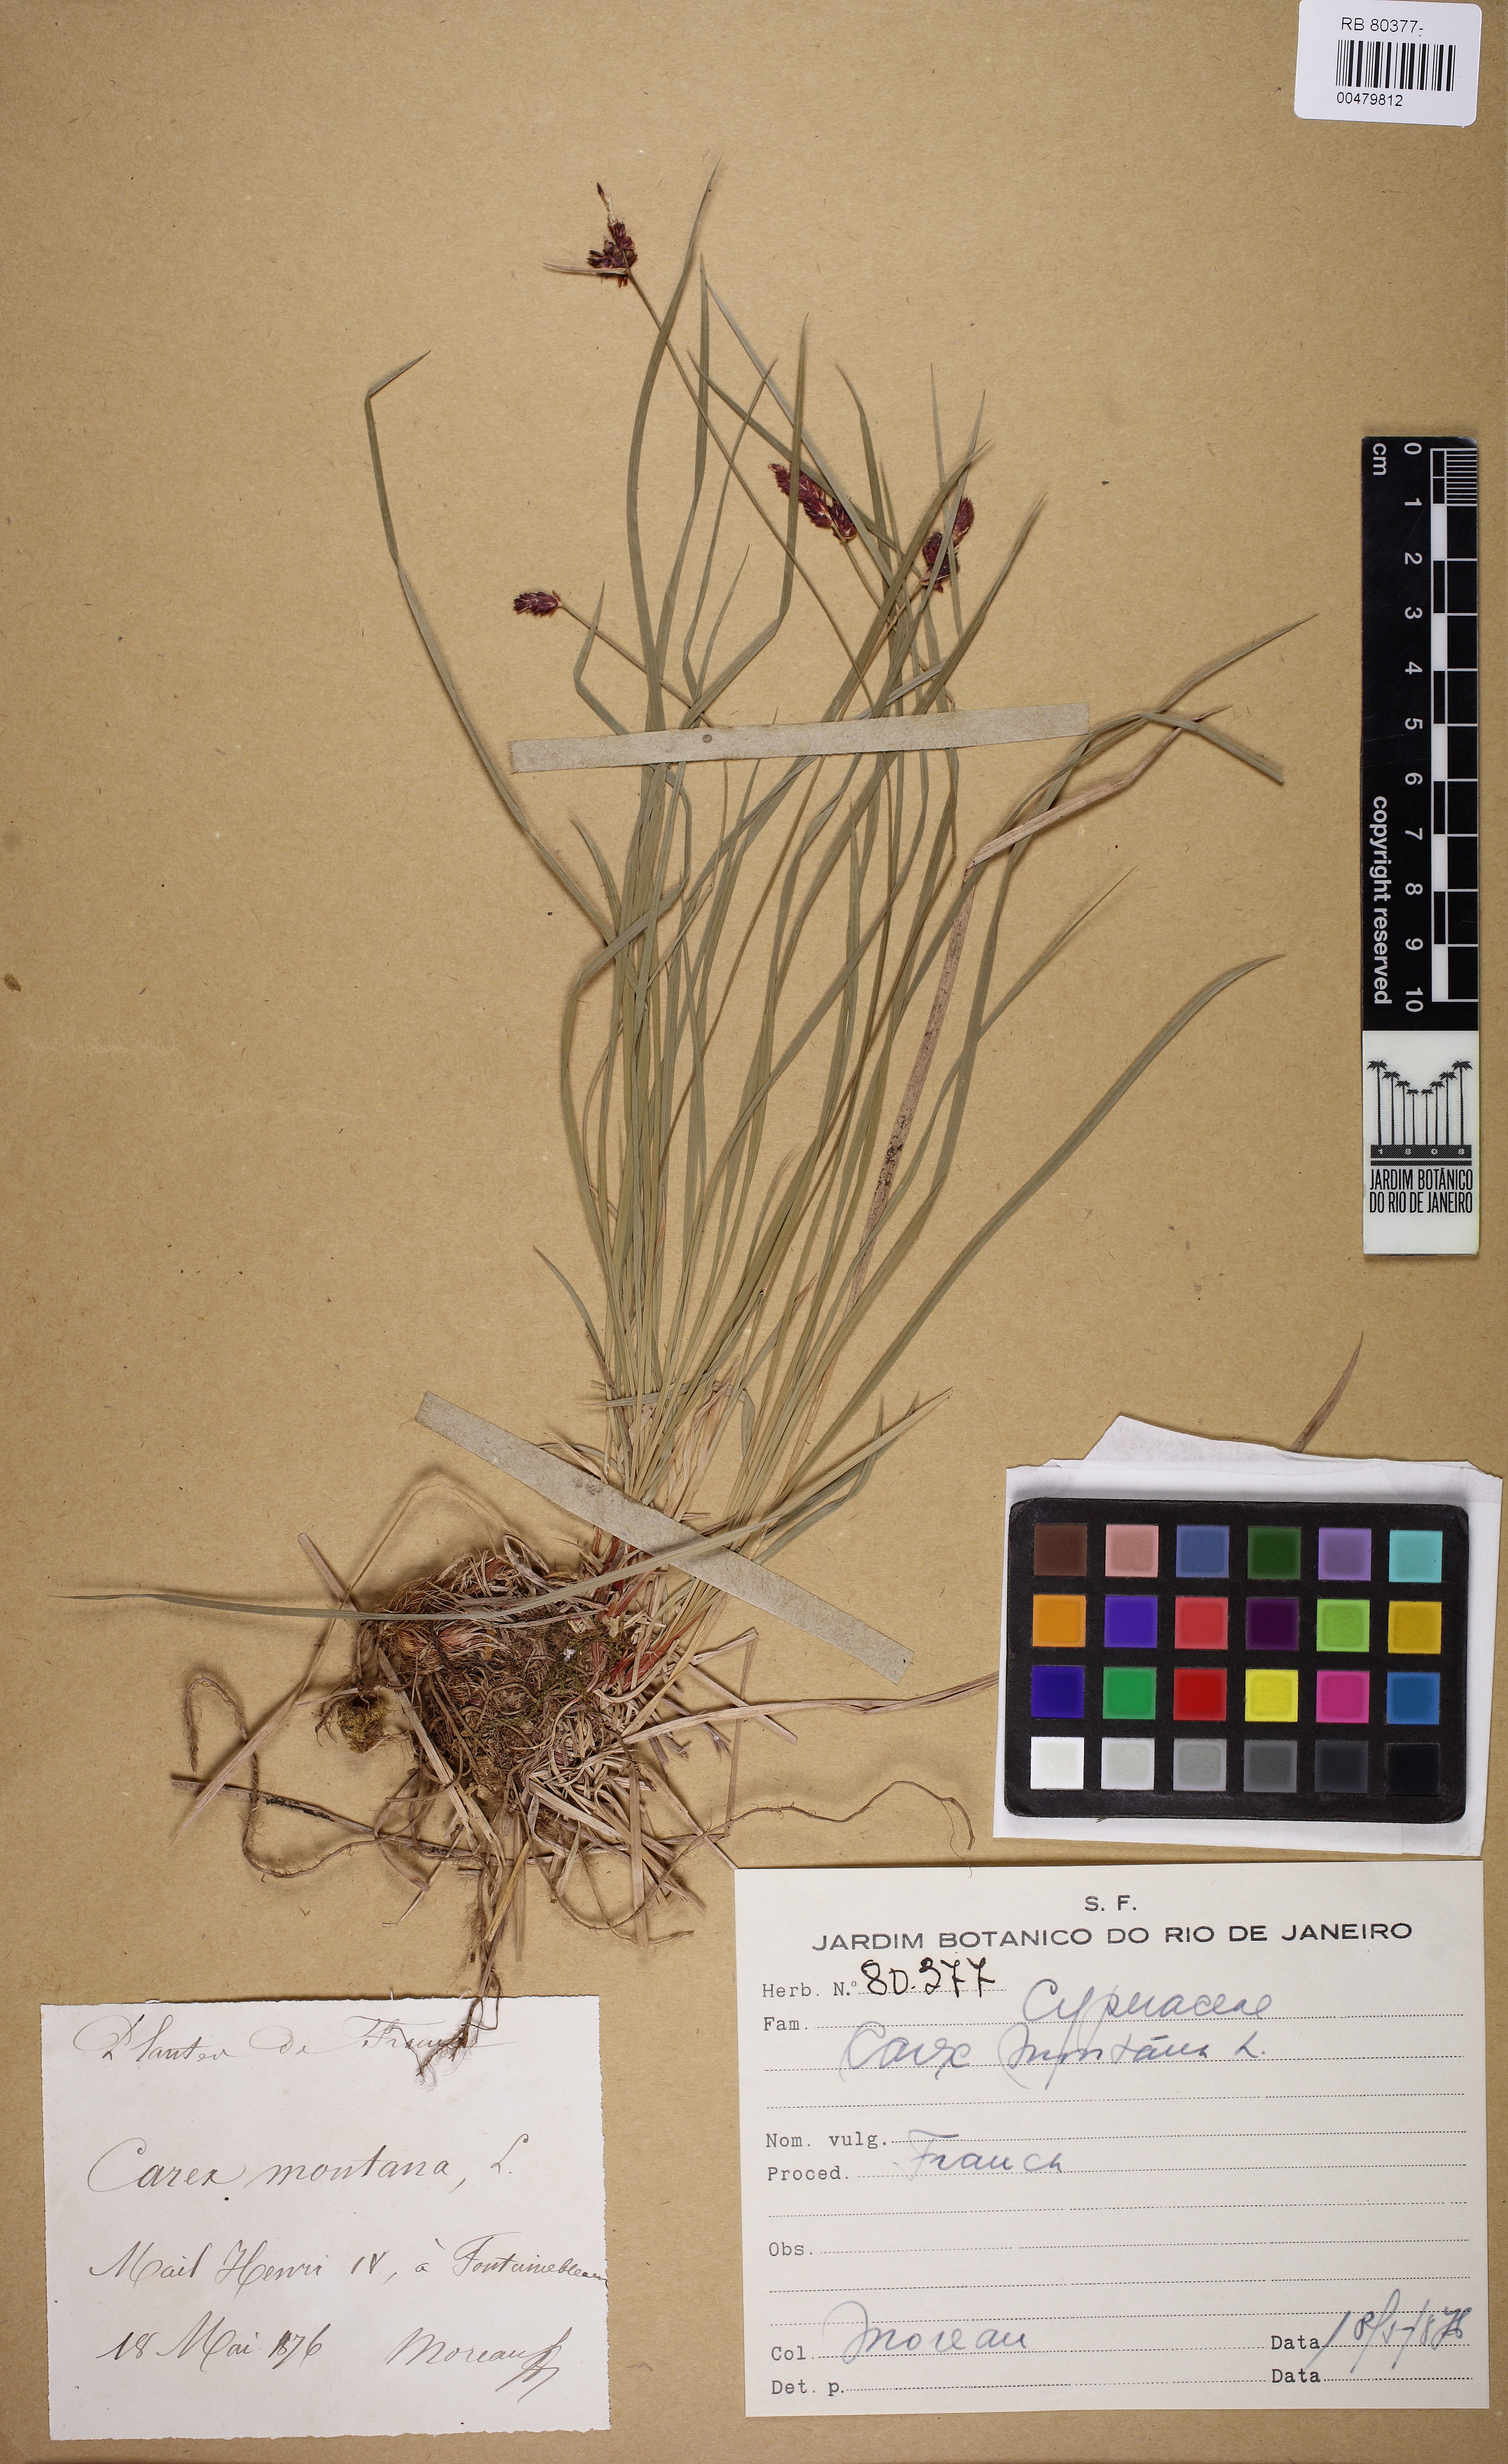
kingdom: Plantae
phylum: Tracheophyta
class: Liliopsida
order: Poales
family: Cyperaceae
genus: Carex
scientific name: Carex montana
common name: Soft-leaved sedge
